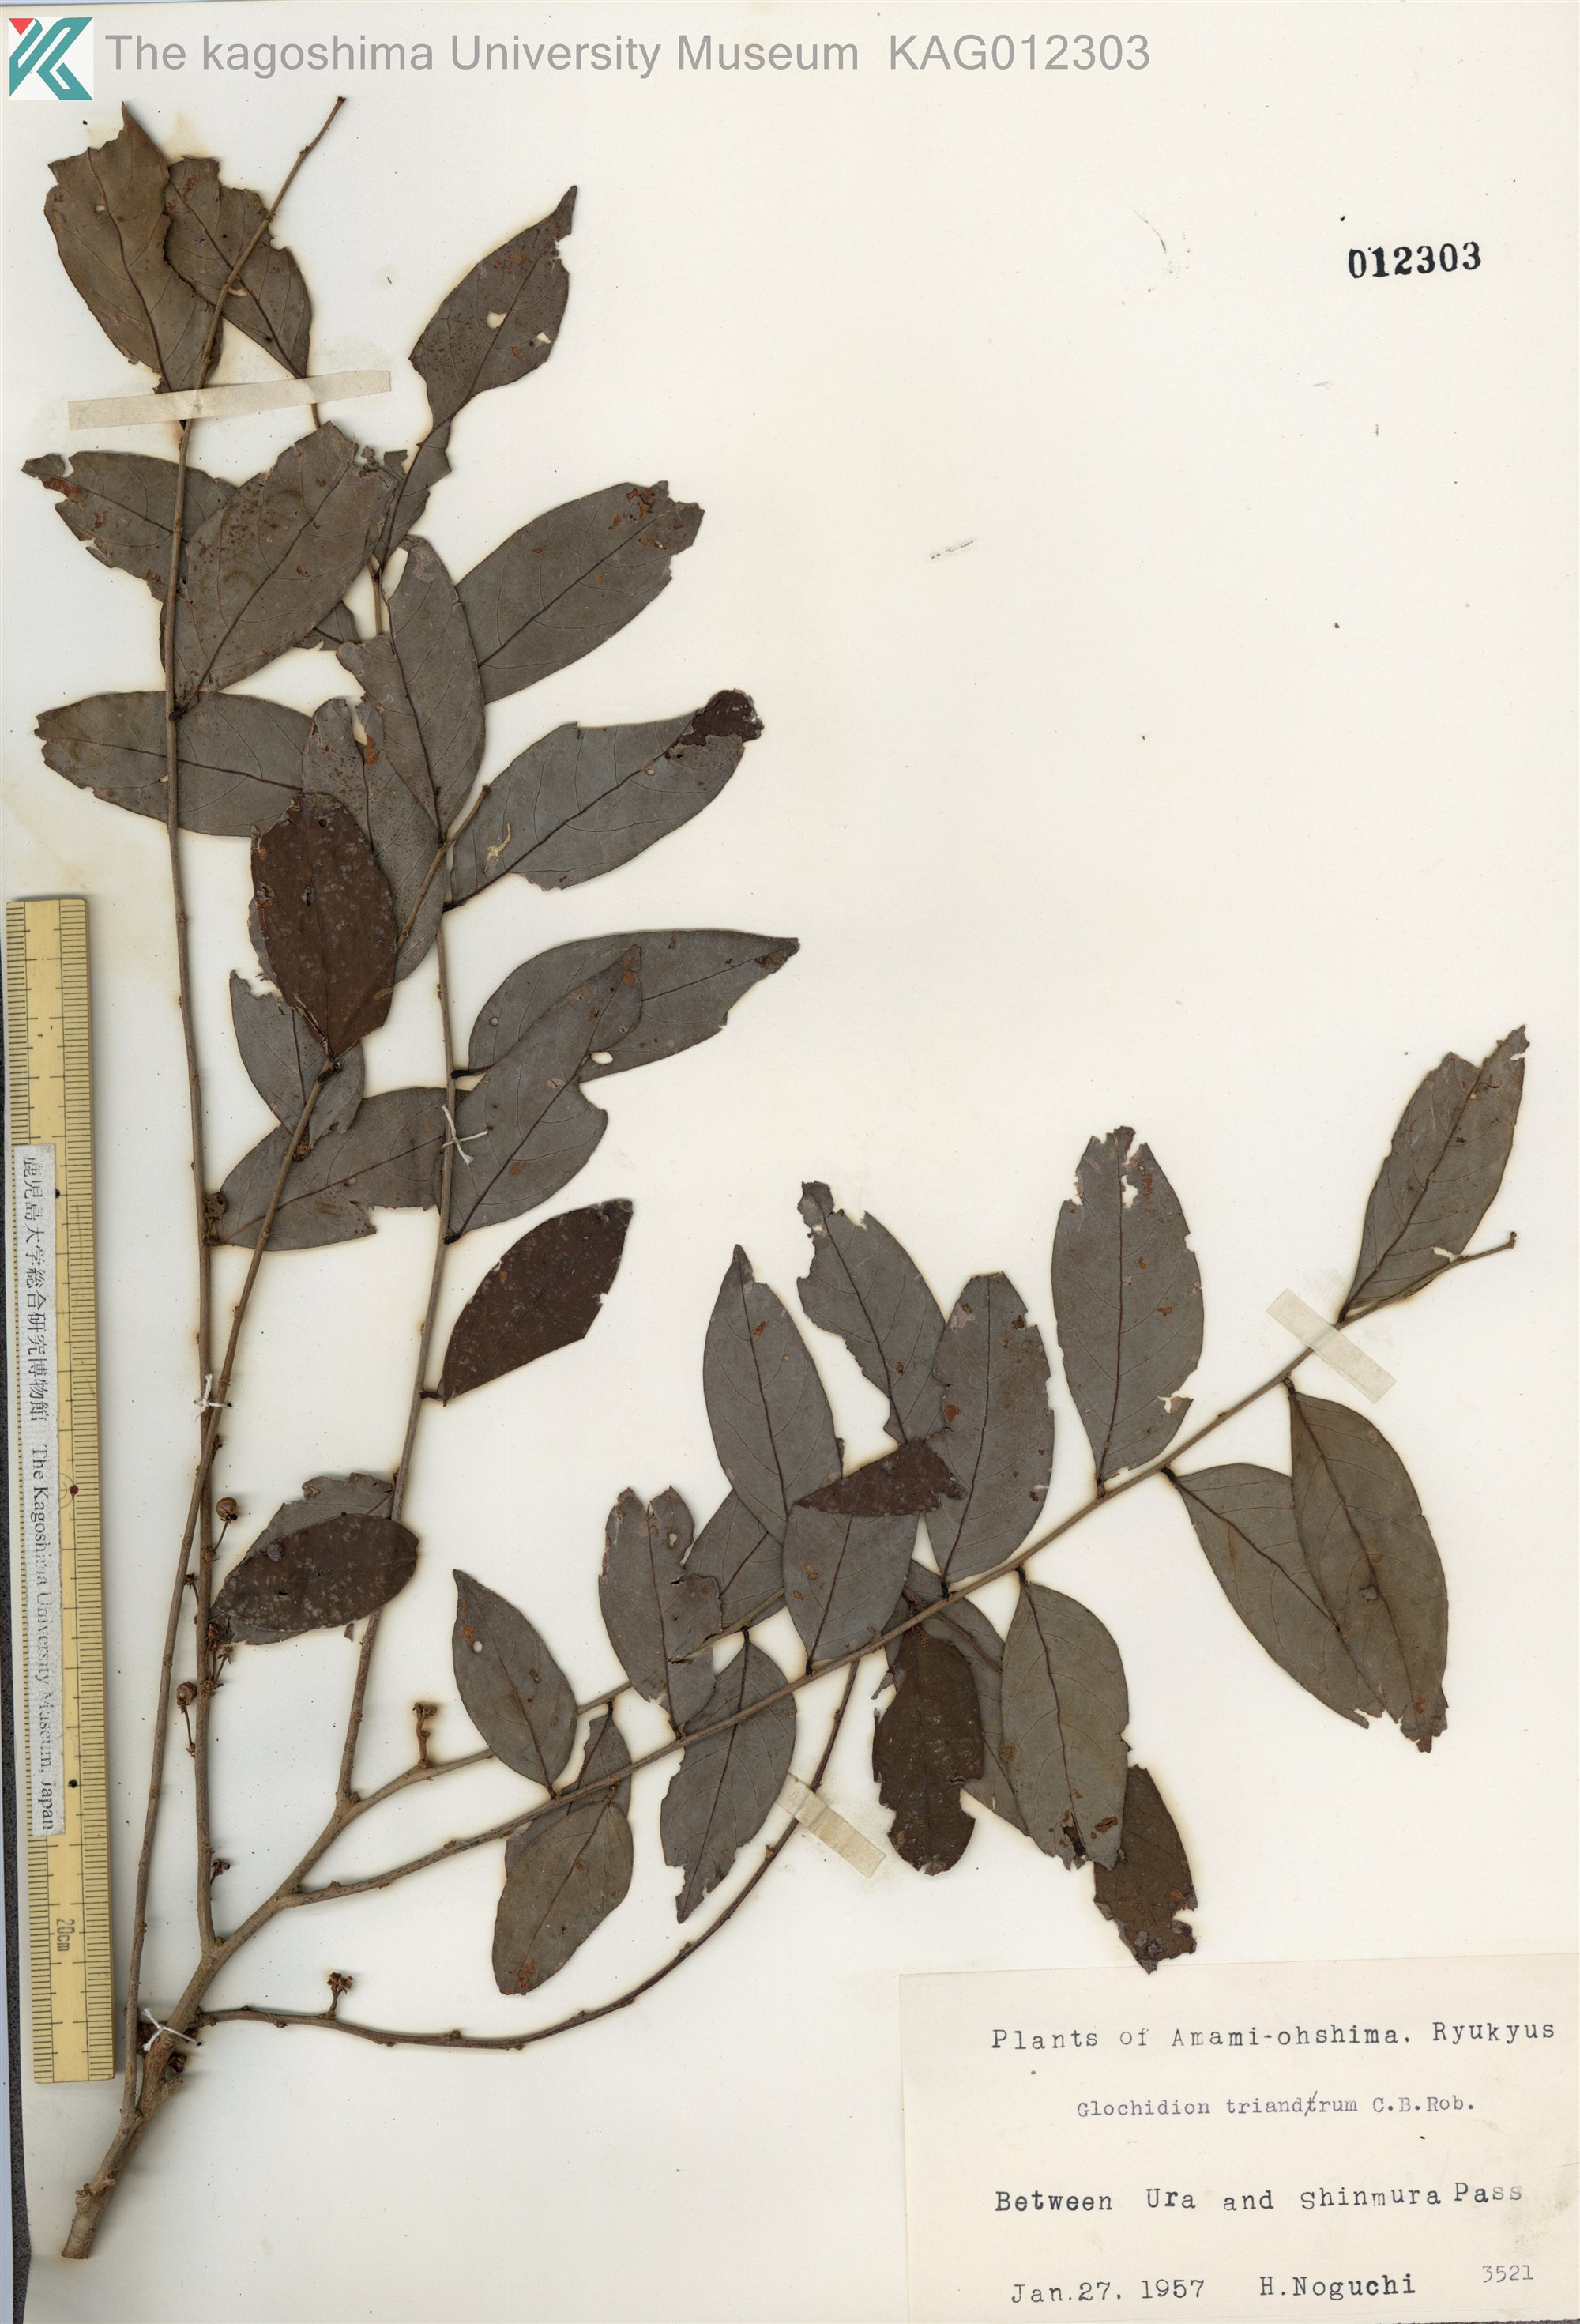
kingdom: Plantae
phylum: Tracheophyta
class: Magnoliopsida
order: Malpighiales
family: Phyllanthaceae
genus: Glochidion
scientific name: Glochidion triandrum
